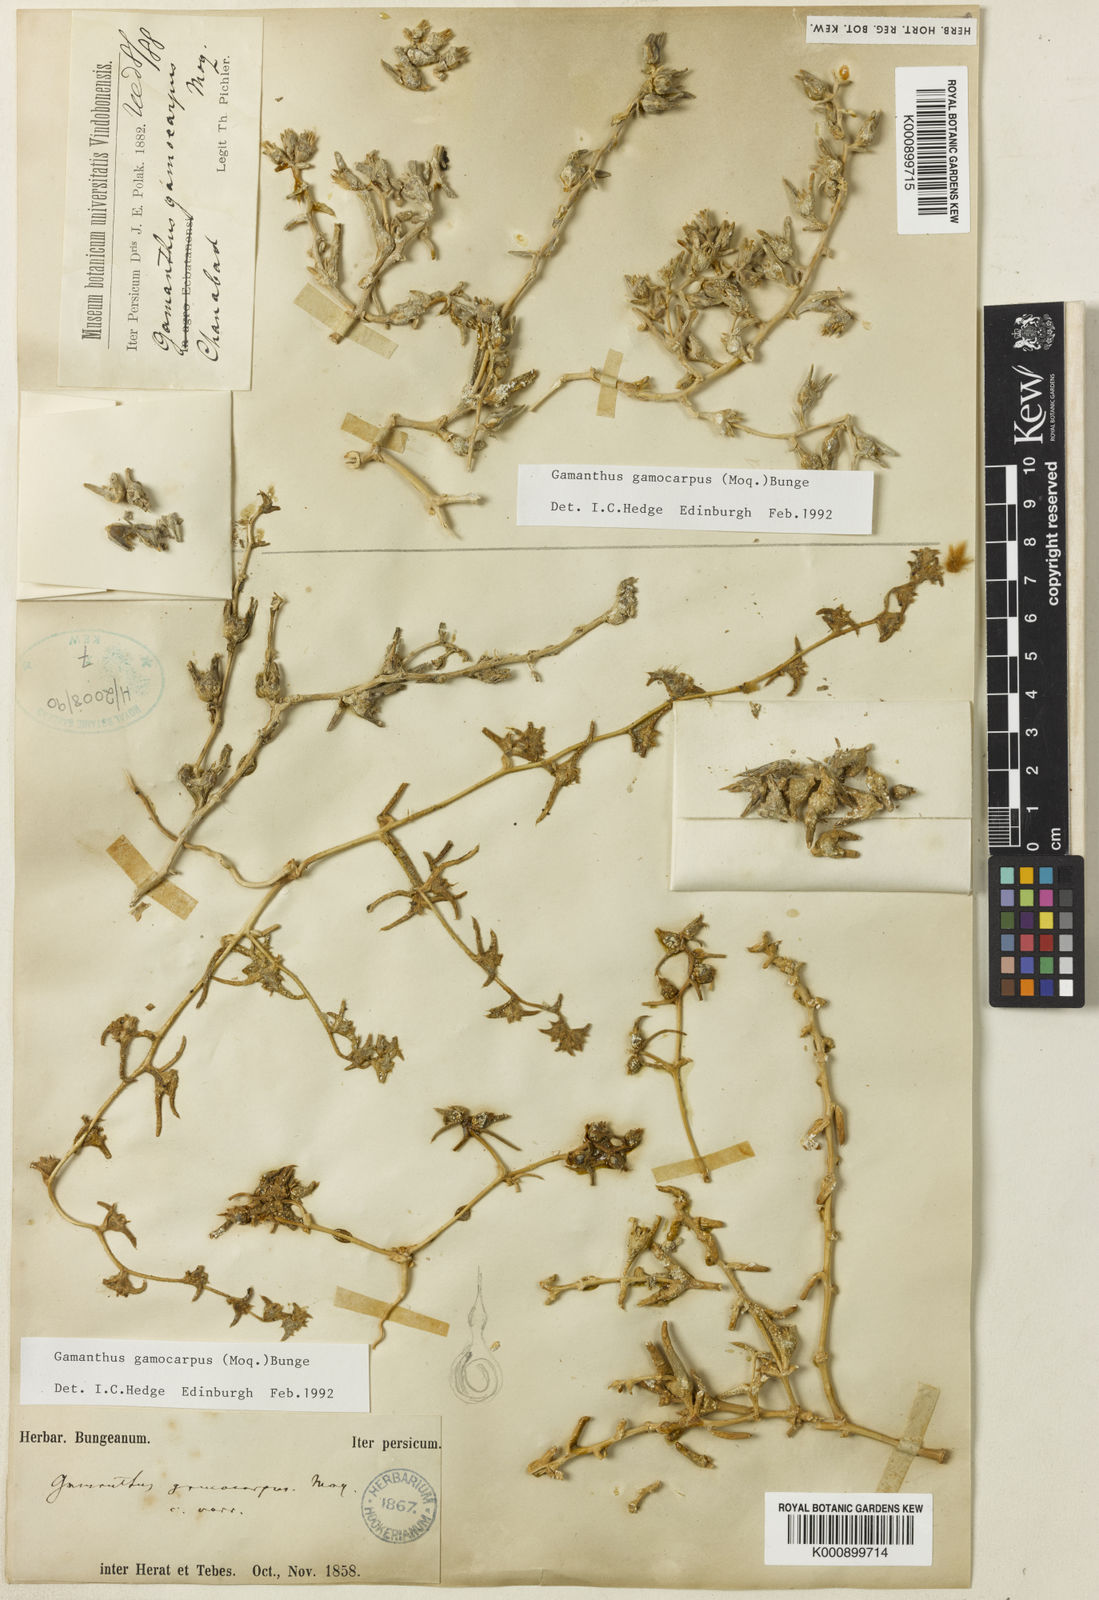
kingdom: Plantae
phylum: Tracheophyta
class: Magnoliopsida
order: Caryophyllales
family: Amaranthaceae
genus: Halimocnemis
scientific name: Halimocnemis
